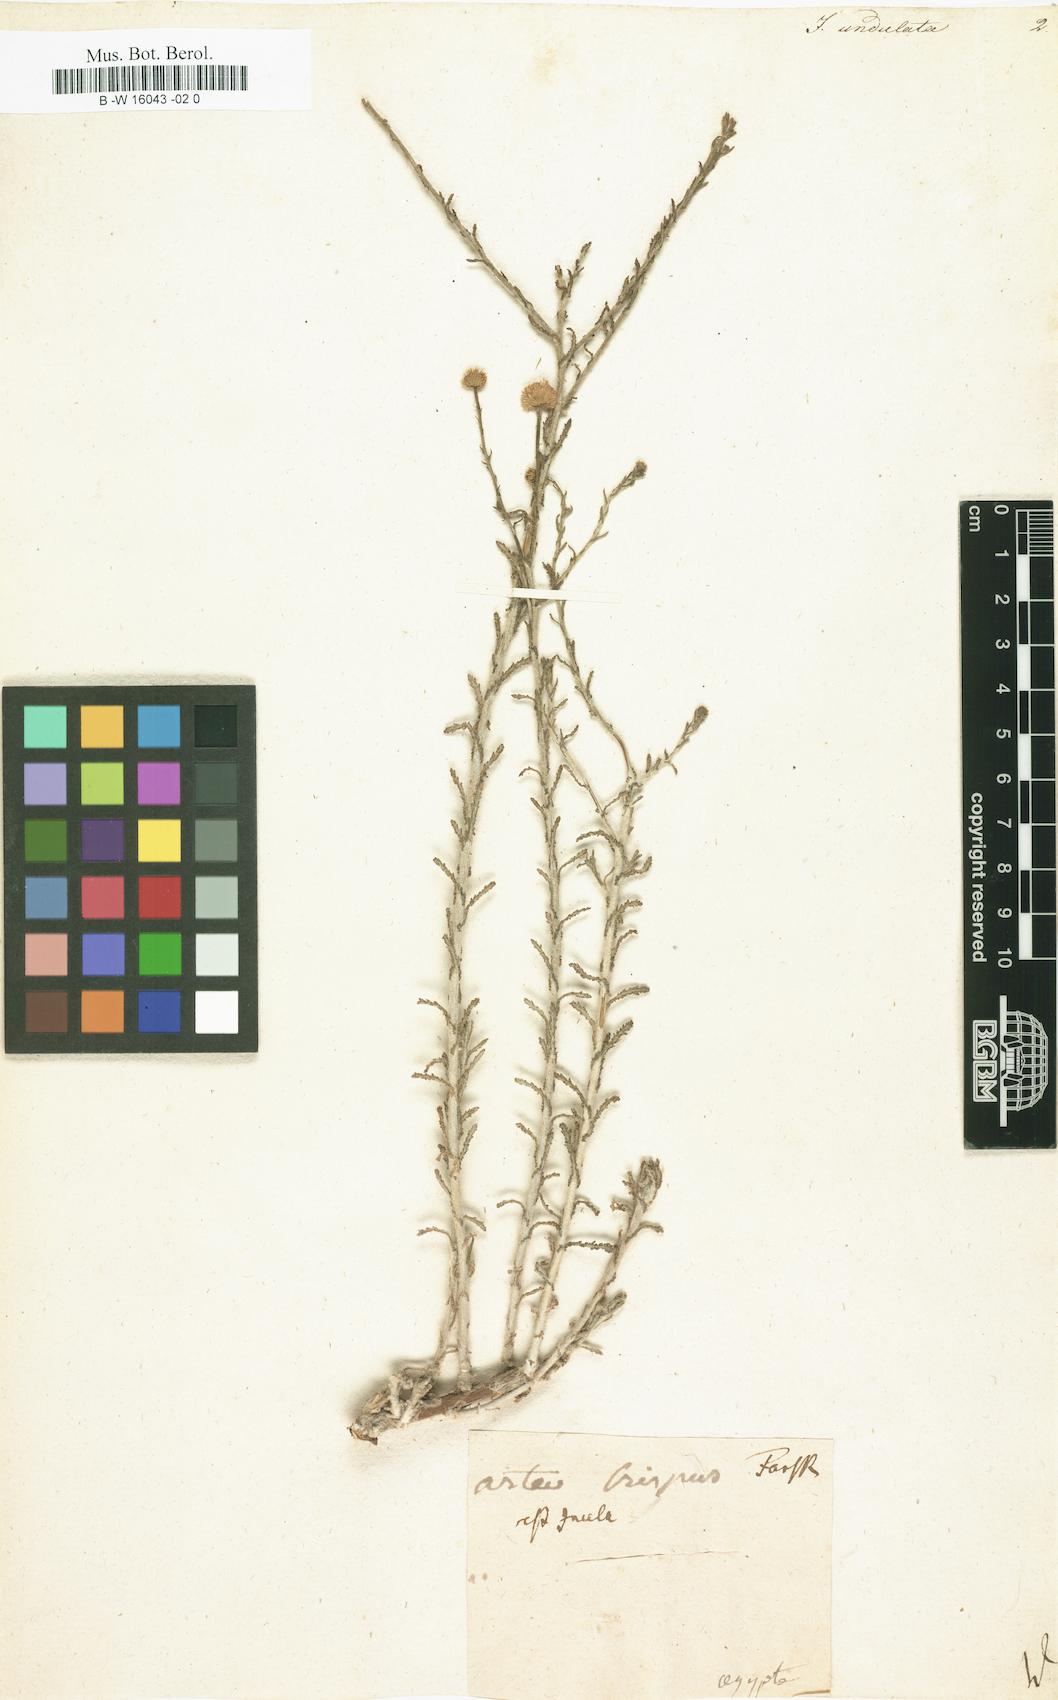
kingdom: Plantae
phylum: Tracheophyta
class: Magnoliopsida
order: Asterales
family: Asteraceae
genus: Pulicaria
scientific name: Pulicaria undulata
